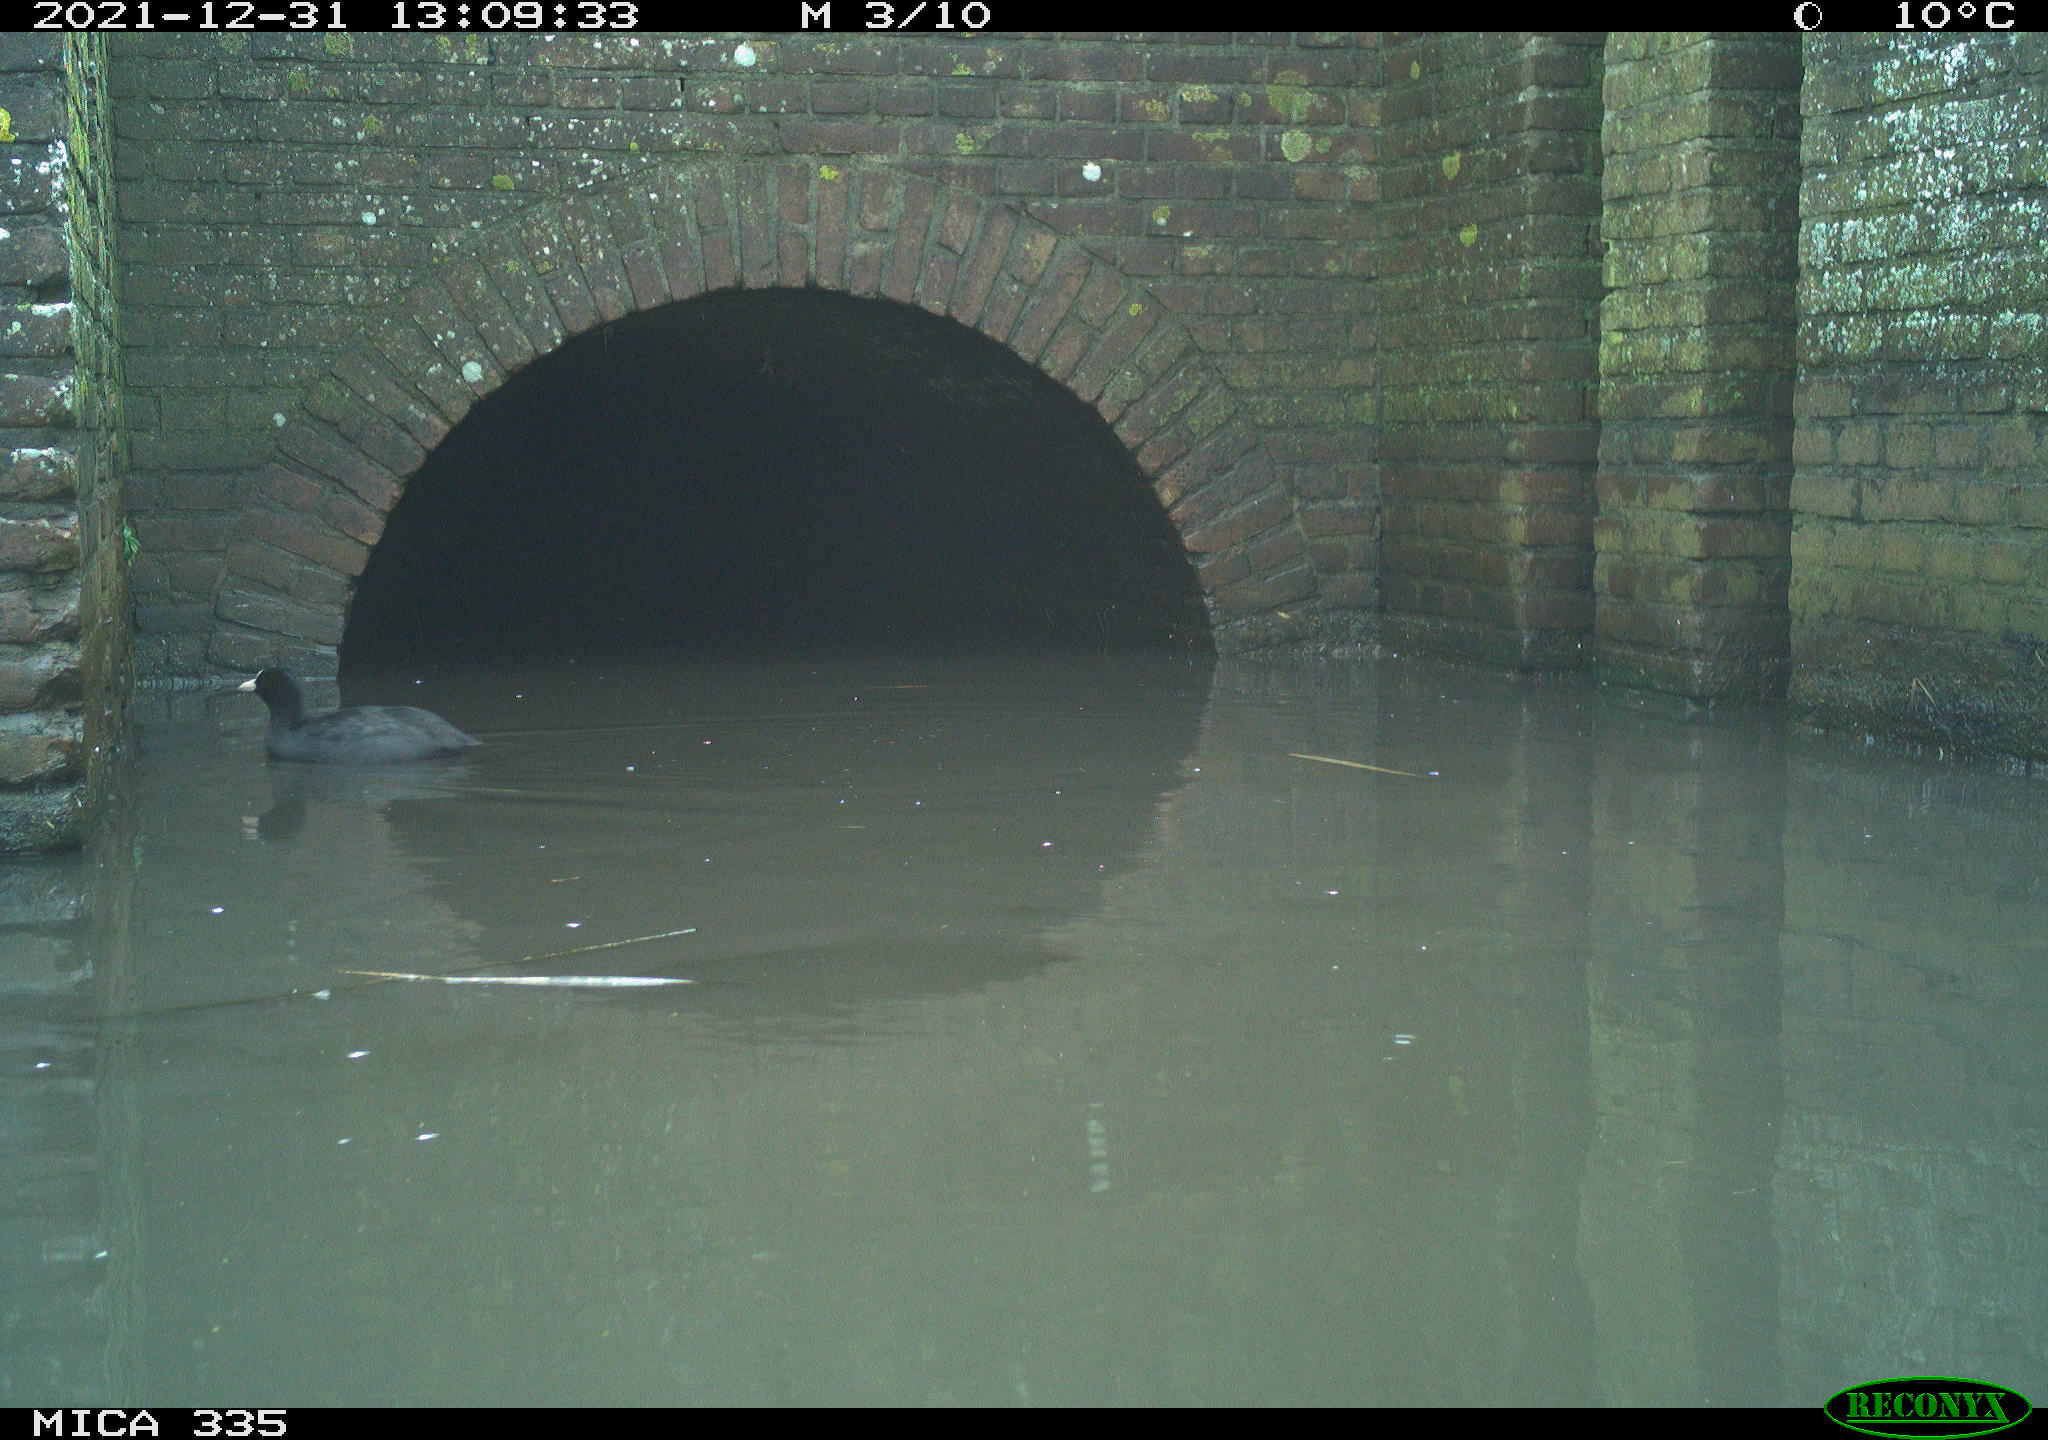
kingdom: Animalia
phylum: Chordata
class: Aves
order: Gruiformes
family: Rallidae
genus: Fulica
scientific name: Fulica atra
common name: Eurasian coot
